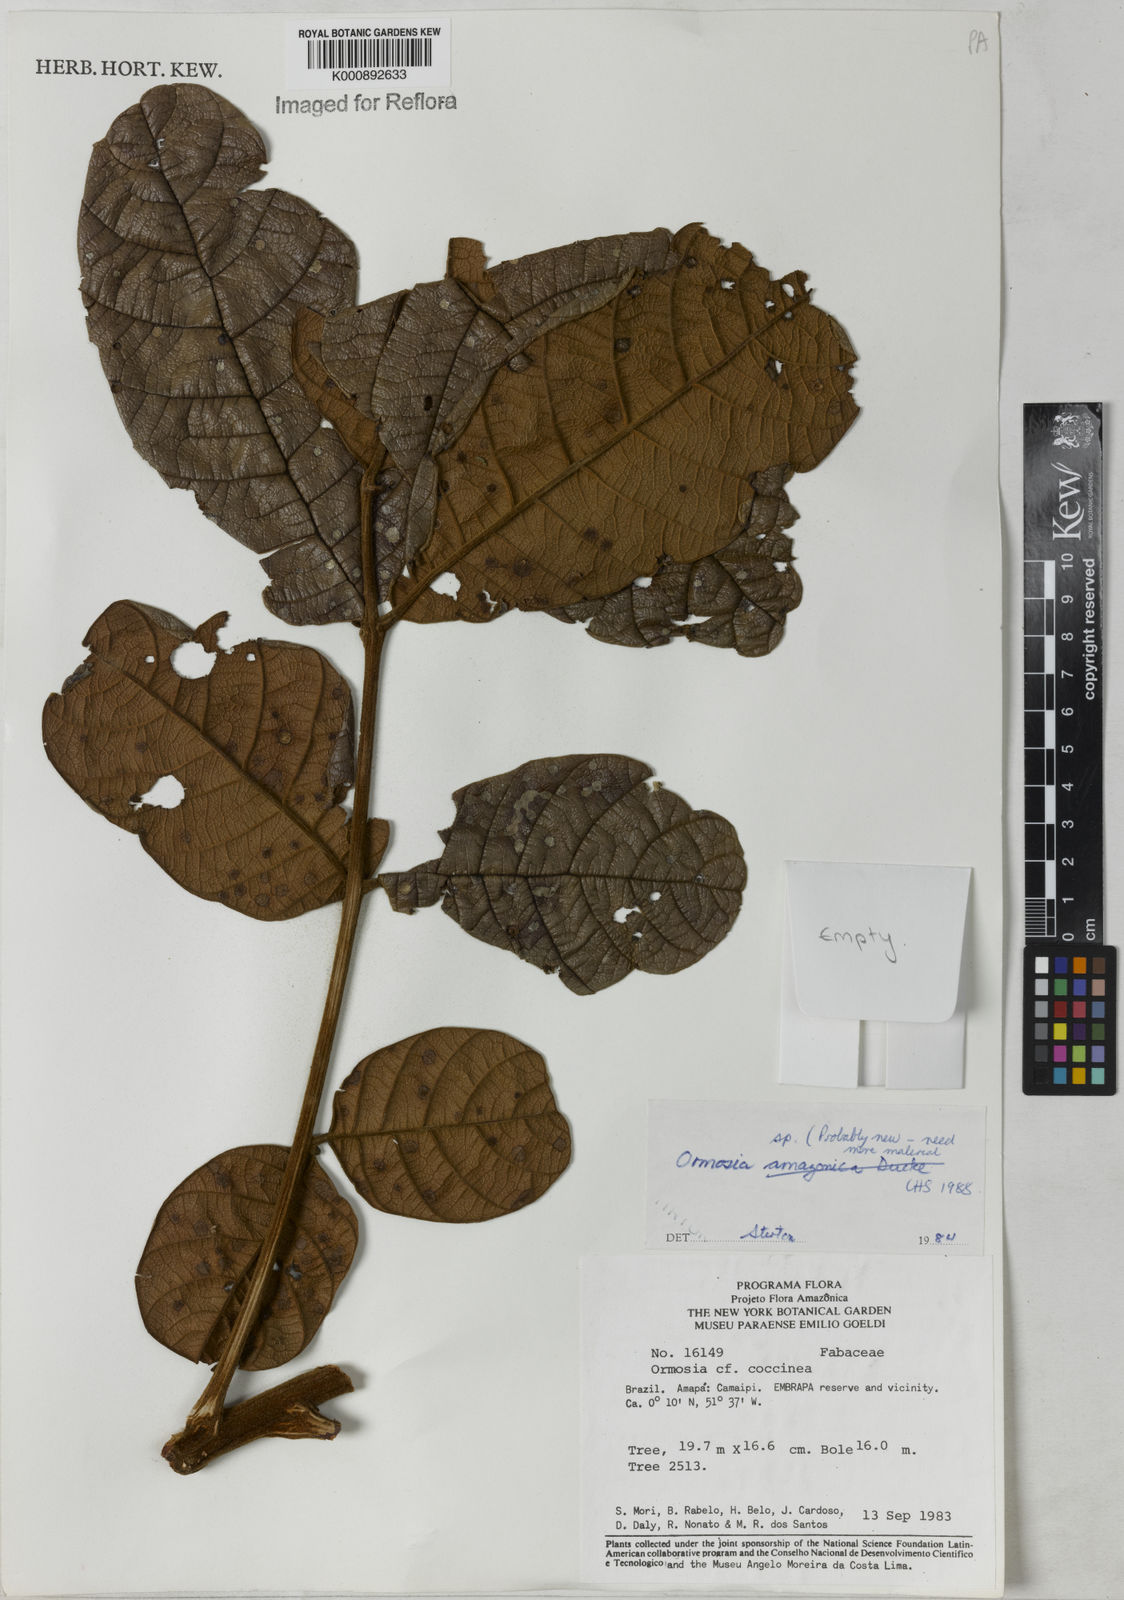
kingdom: Plantae
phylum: Tracheophyta
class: Magnoliopsida
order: Fabales
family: Fabaceae
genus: Ormosia
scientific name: Ormosia
